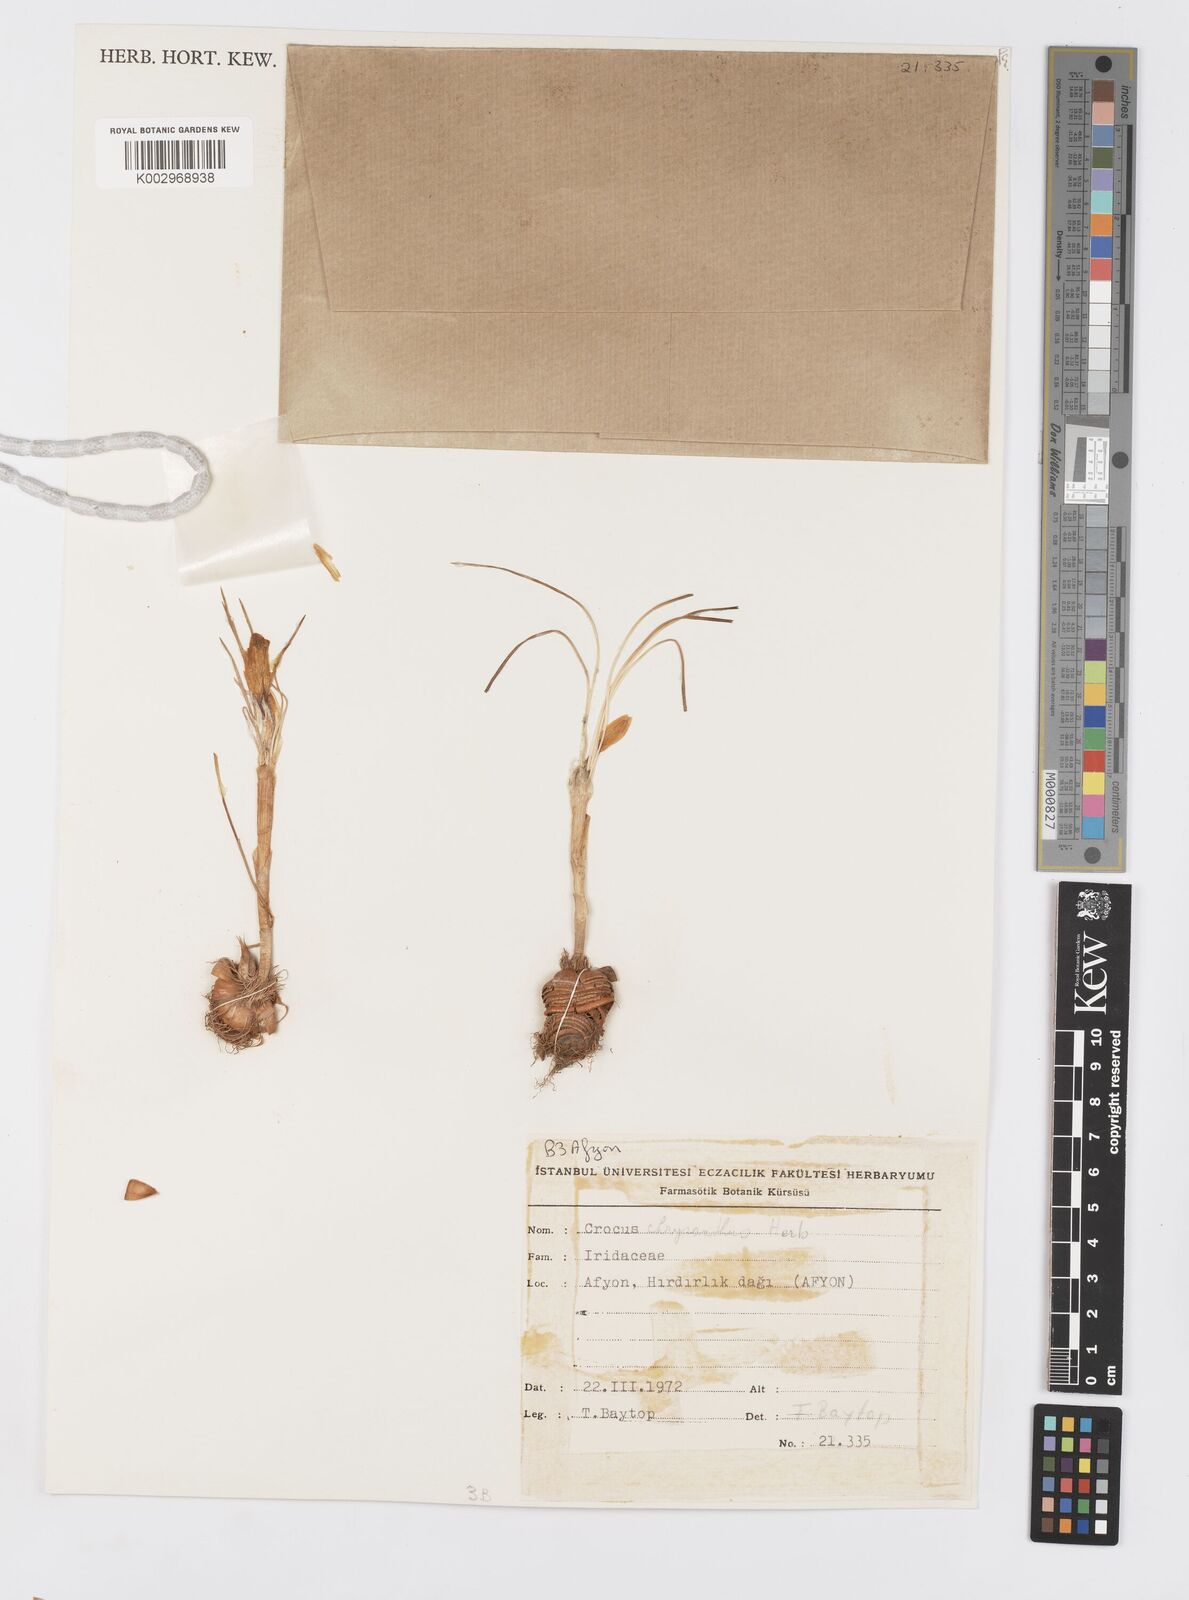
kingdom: Plantae
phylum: Tracheophyta
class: Liliopsida
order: Asparagales
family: Iridaceae
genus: Crocus
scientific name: Crocus chrysanthus
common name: Golden crocus
